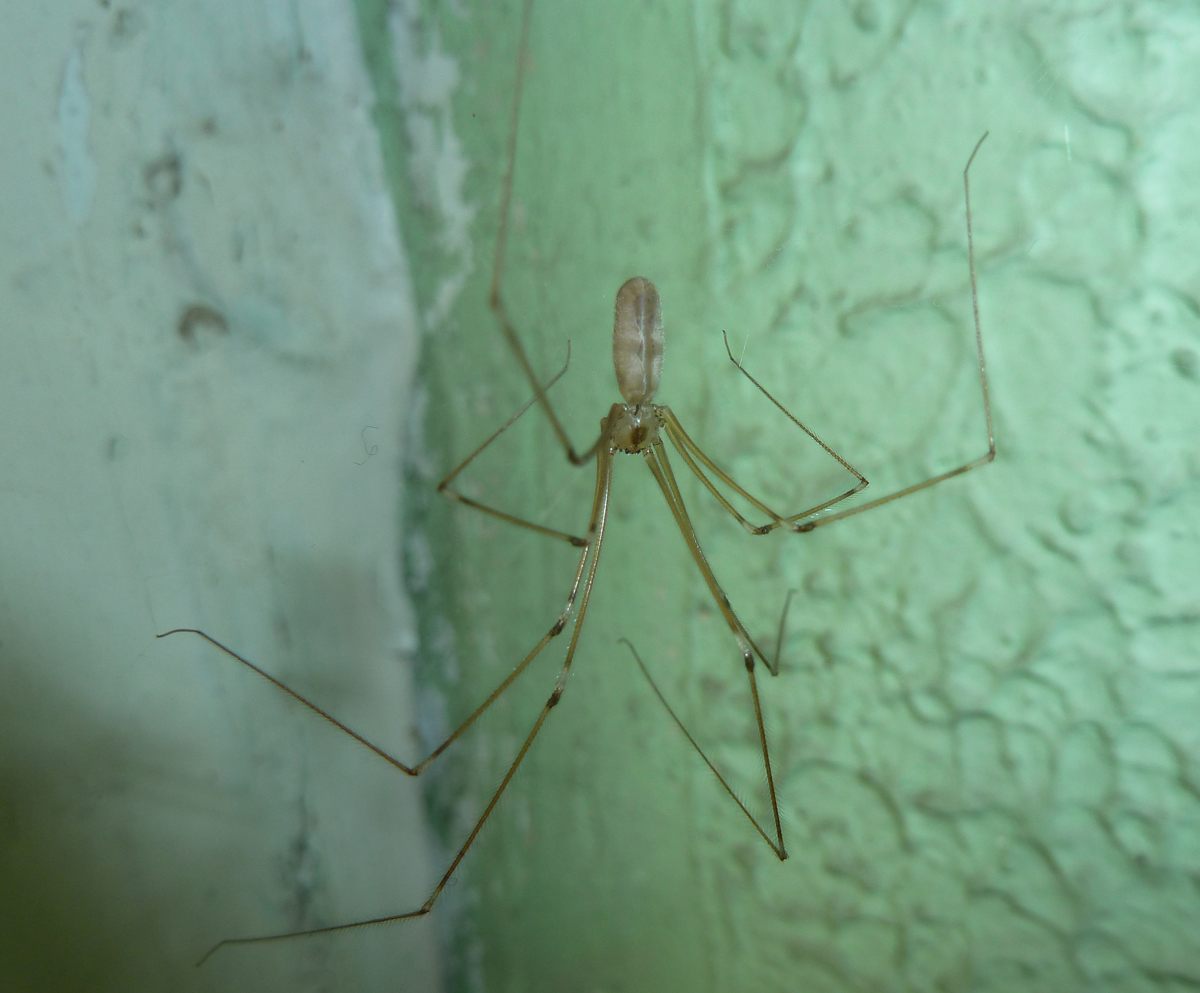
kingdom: Animalia
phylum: Arthropoda
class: Arachnida
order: Araneae
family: Pholcidae
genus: Pholcus
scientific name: Pholcus phalangioides
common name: Longbodied cellar spider
